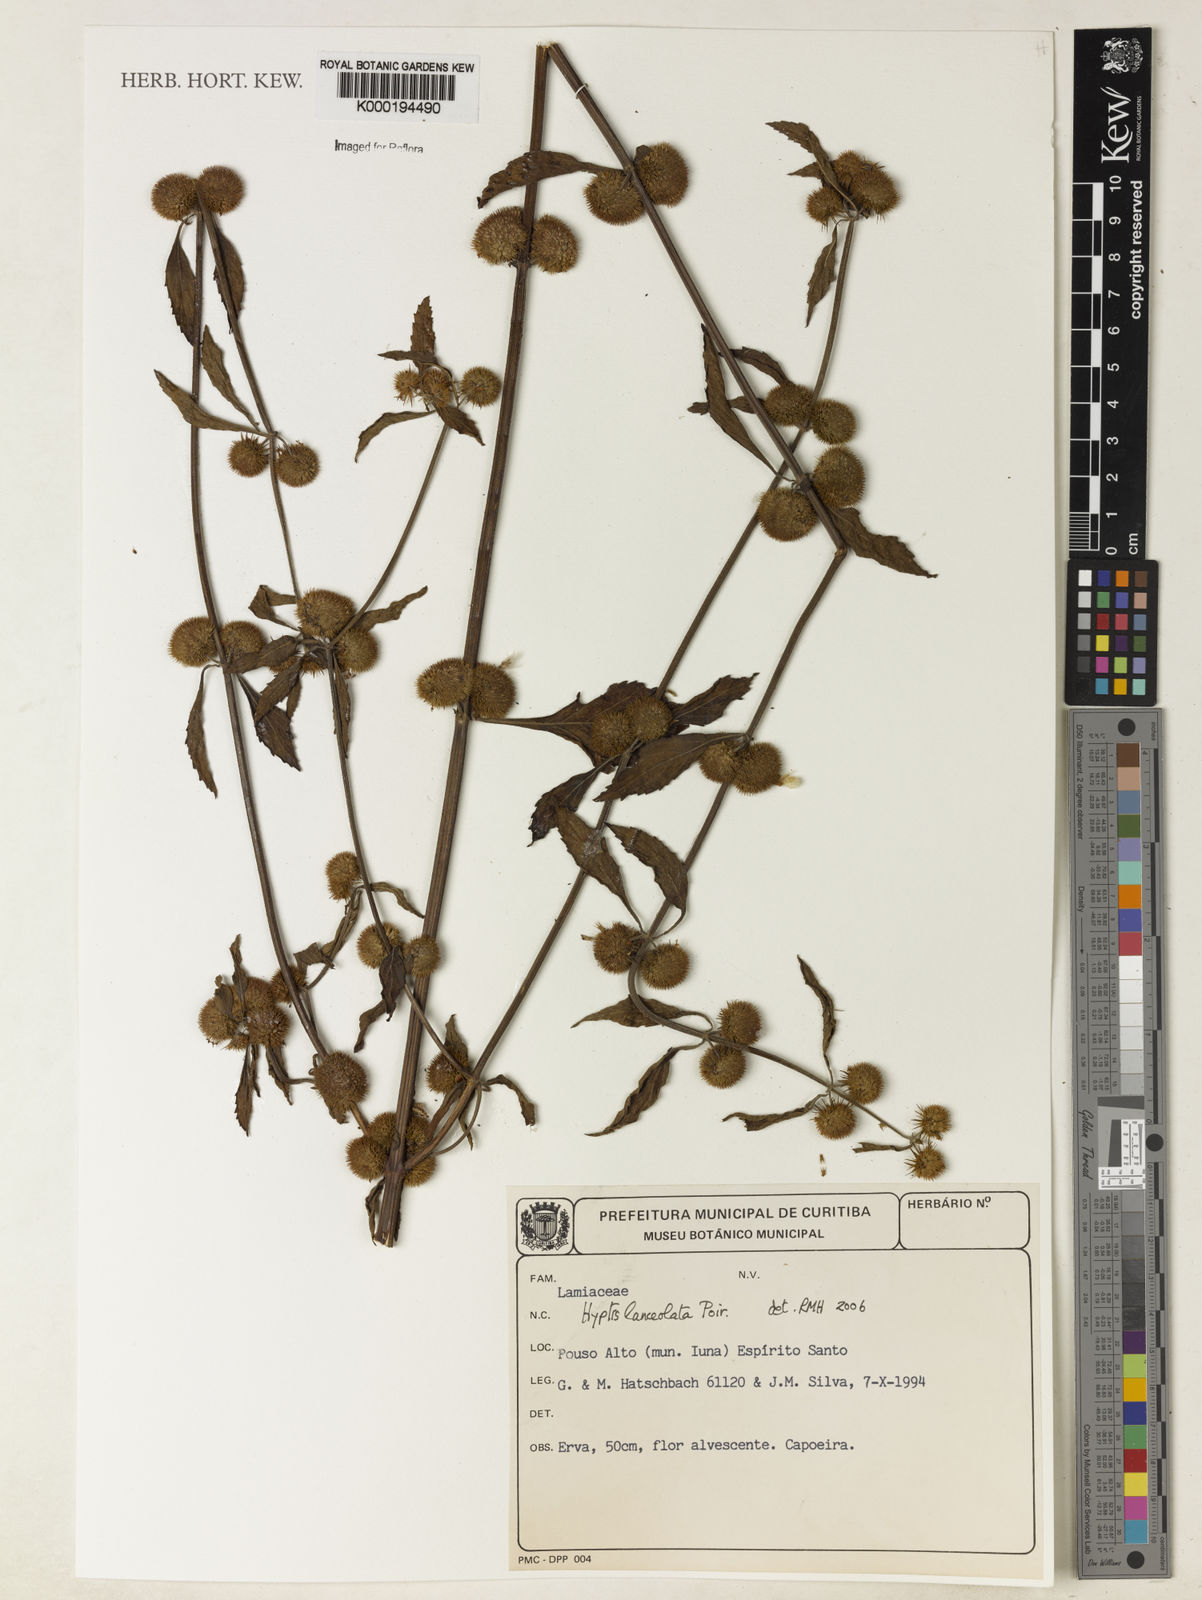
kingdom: Plantae
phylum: Tracheophyta
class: Magnoliopsida
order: Lamiales
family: Lamiaceae
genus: Hyptis
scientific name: Hyptis lanceolata
